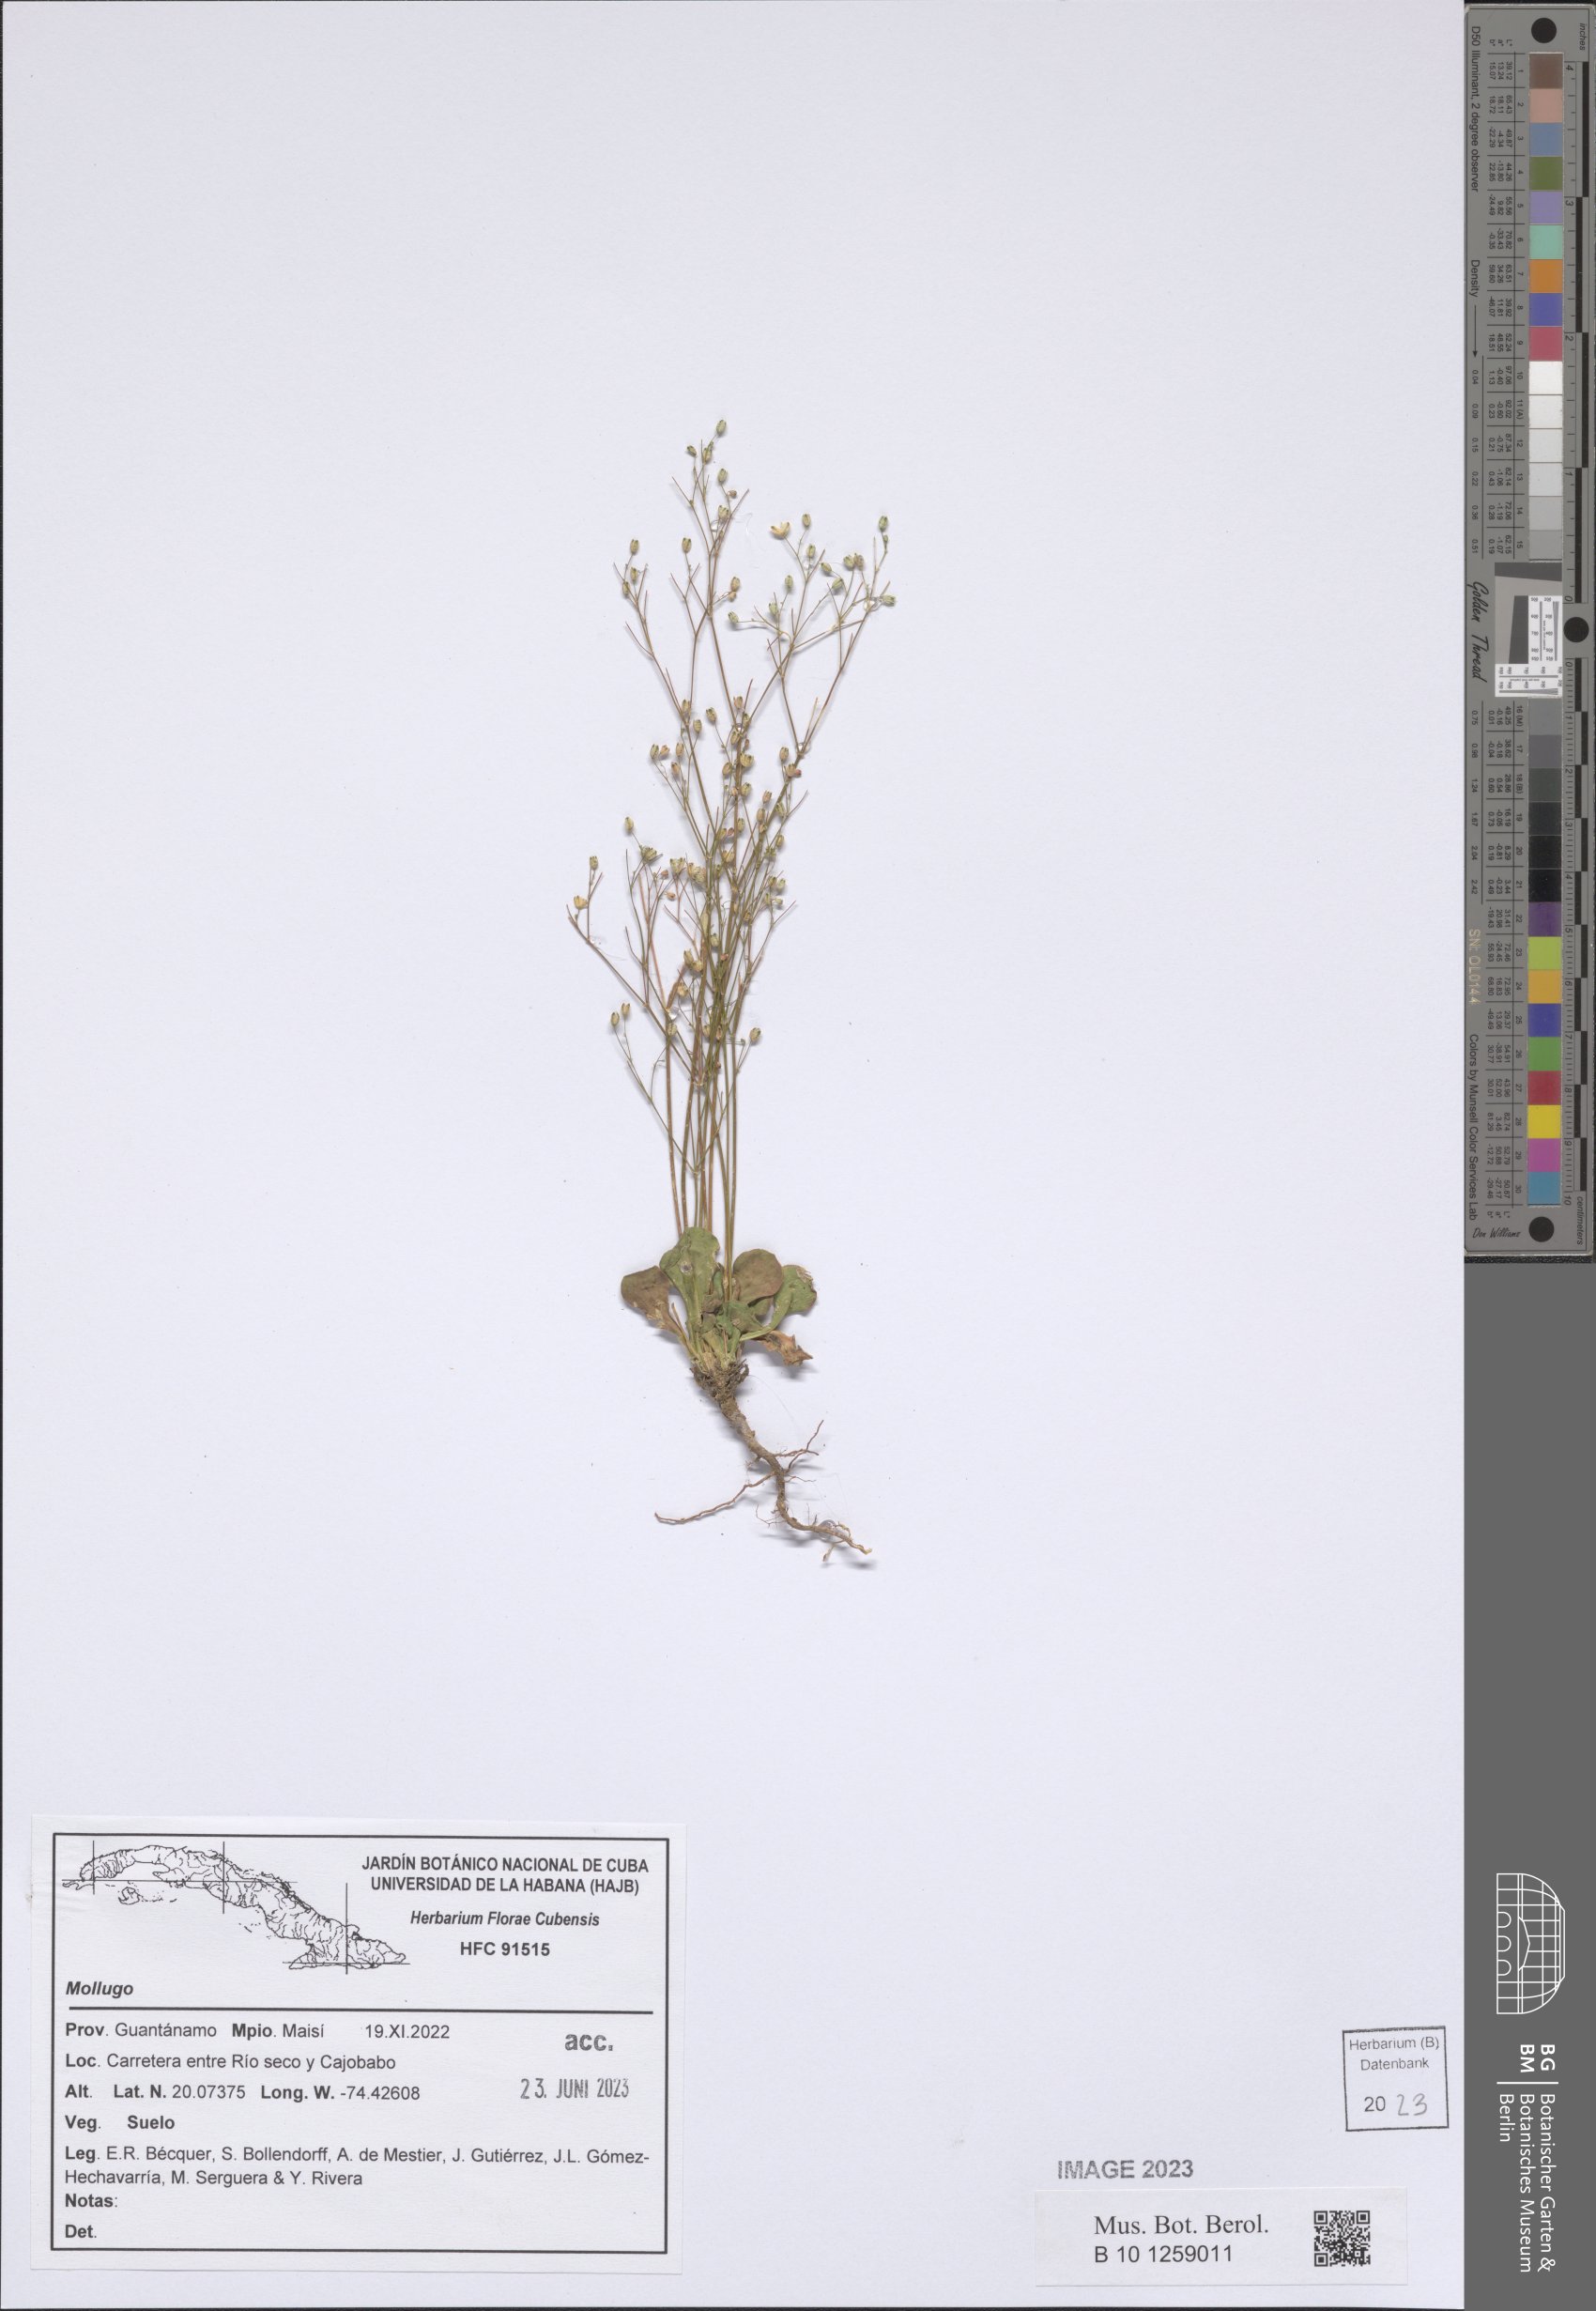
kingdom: Plantae
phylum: Tracheophyta
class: Magnoliopsida
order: Caryophyllales
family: Molluginaceae
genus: Mollugo
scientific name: Mollugo
